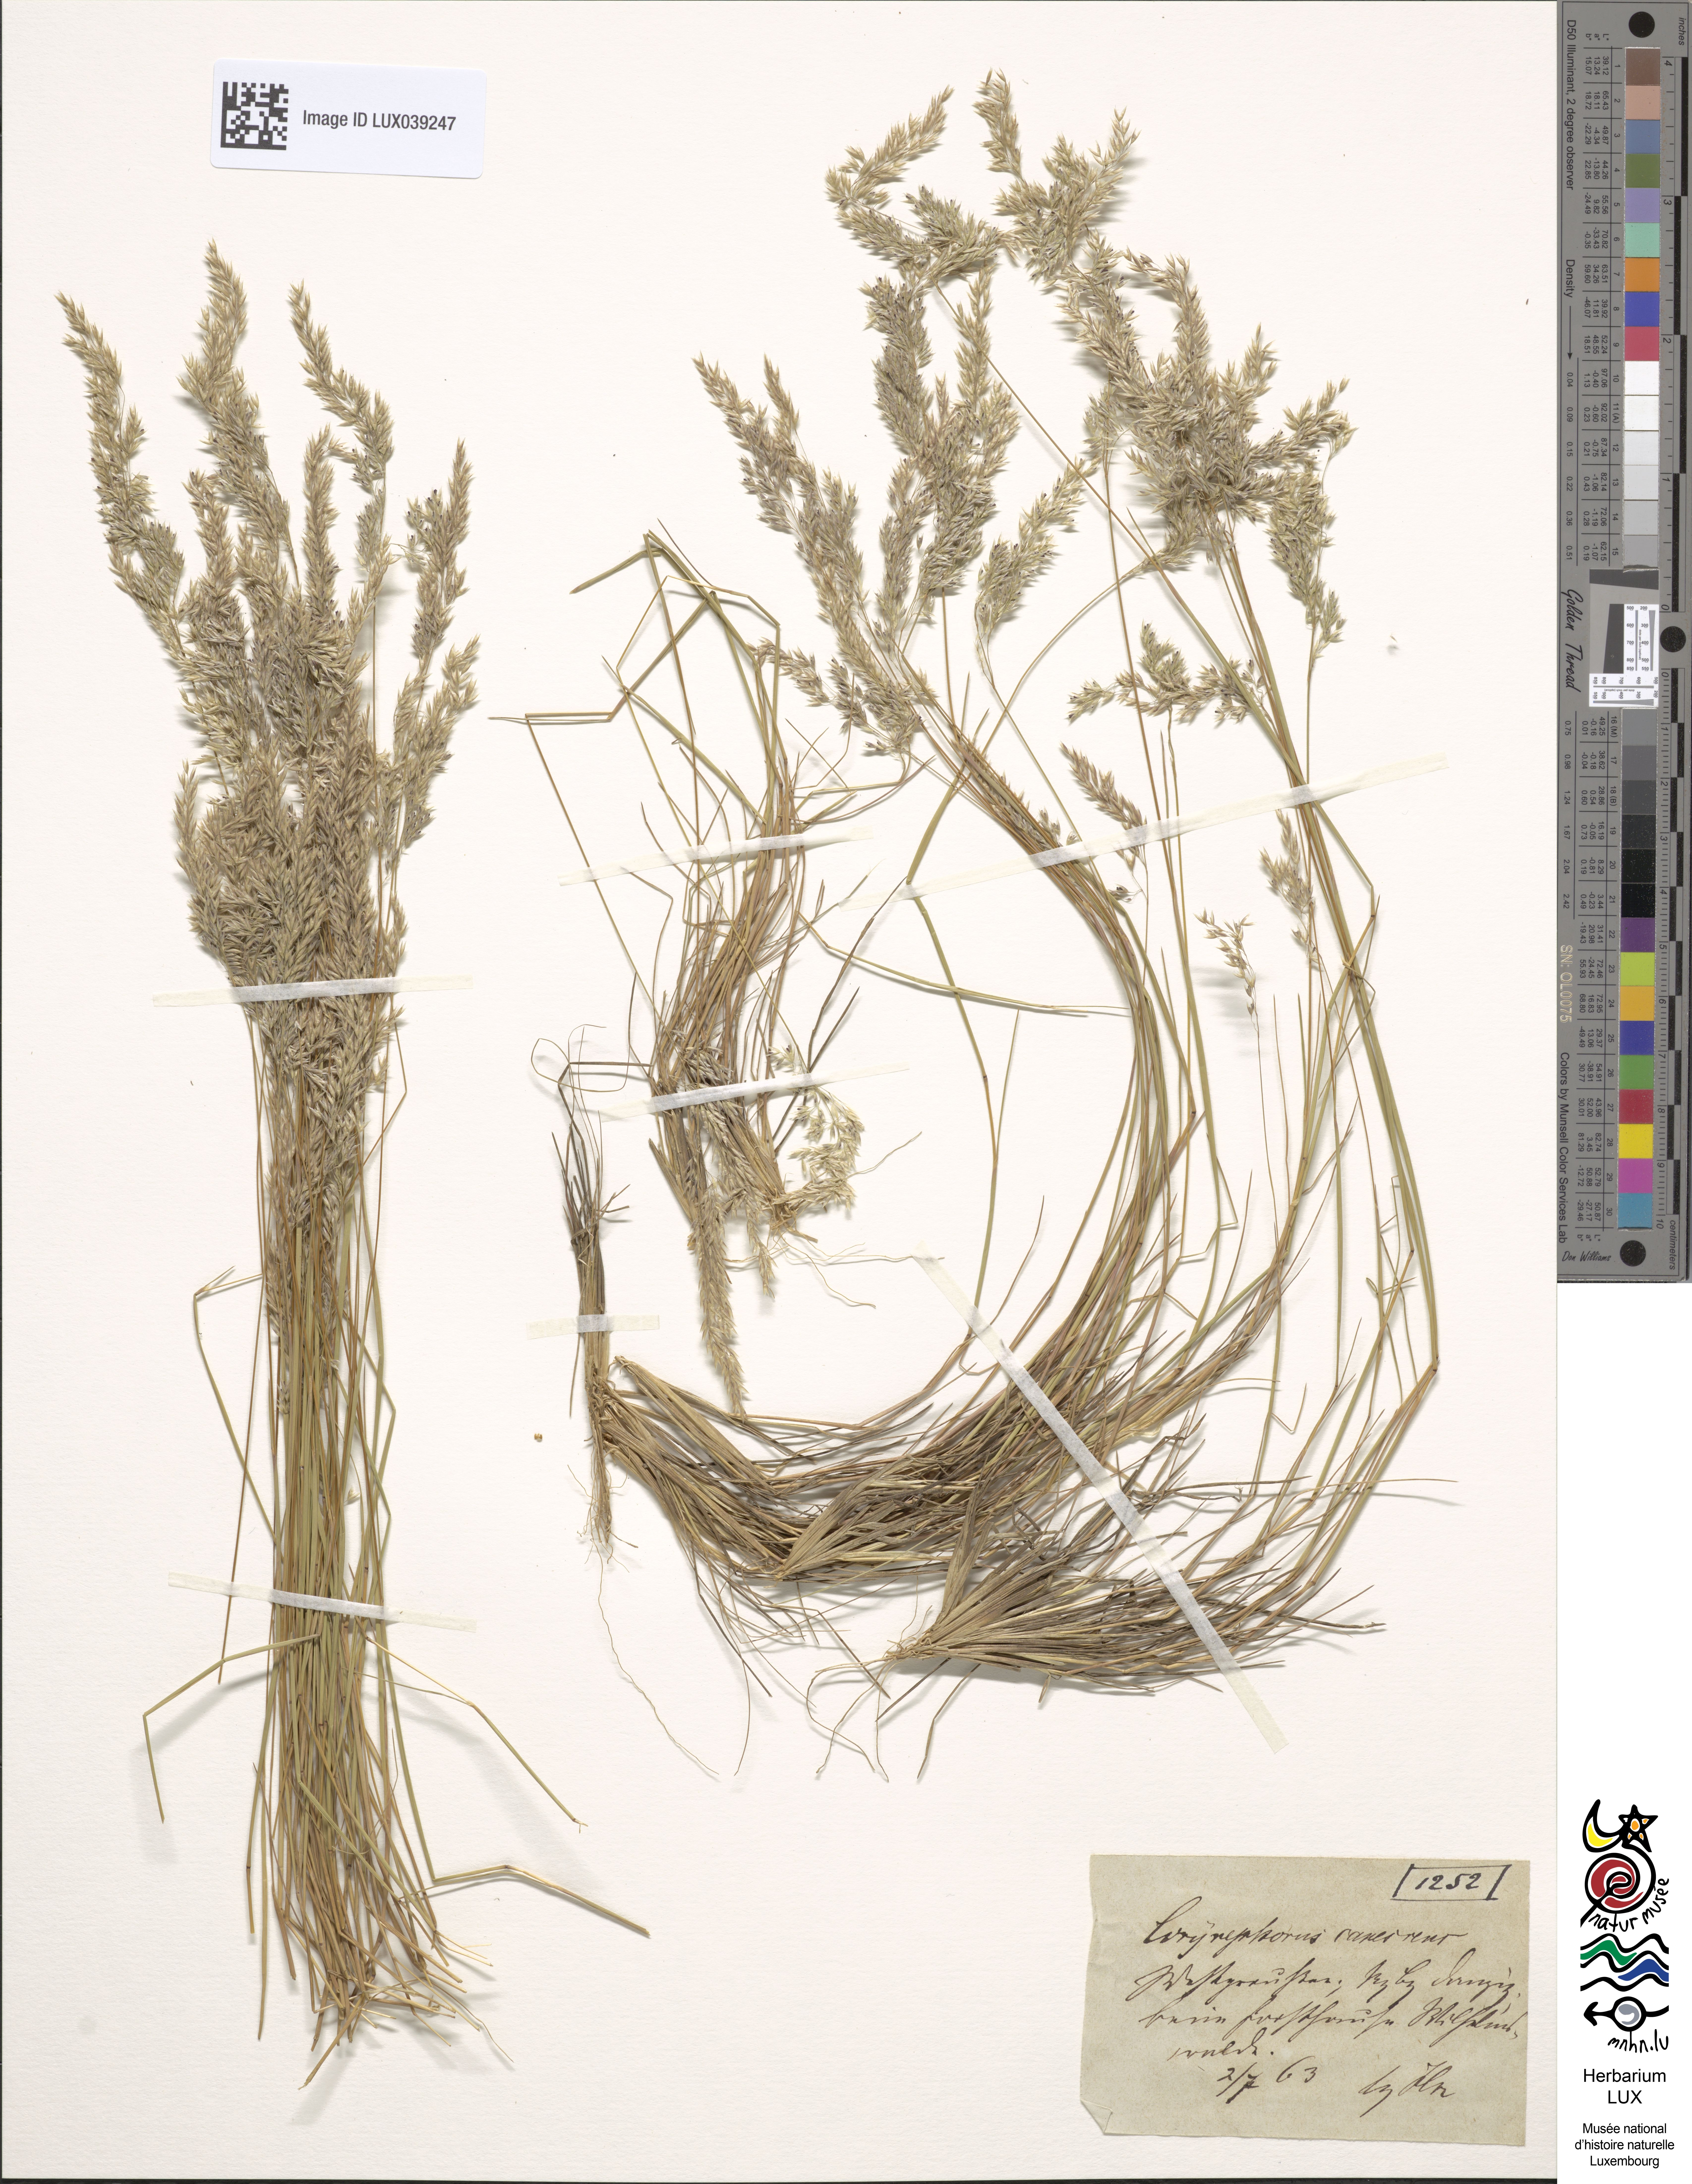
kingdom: Plantae
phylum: Tracheophyta
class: Liliopsida
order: Poales
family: Poaceae
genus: Corynephorus
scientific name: Corynephorus canescens
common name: Grey hair-grass
